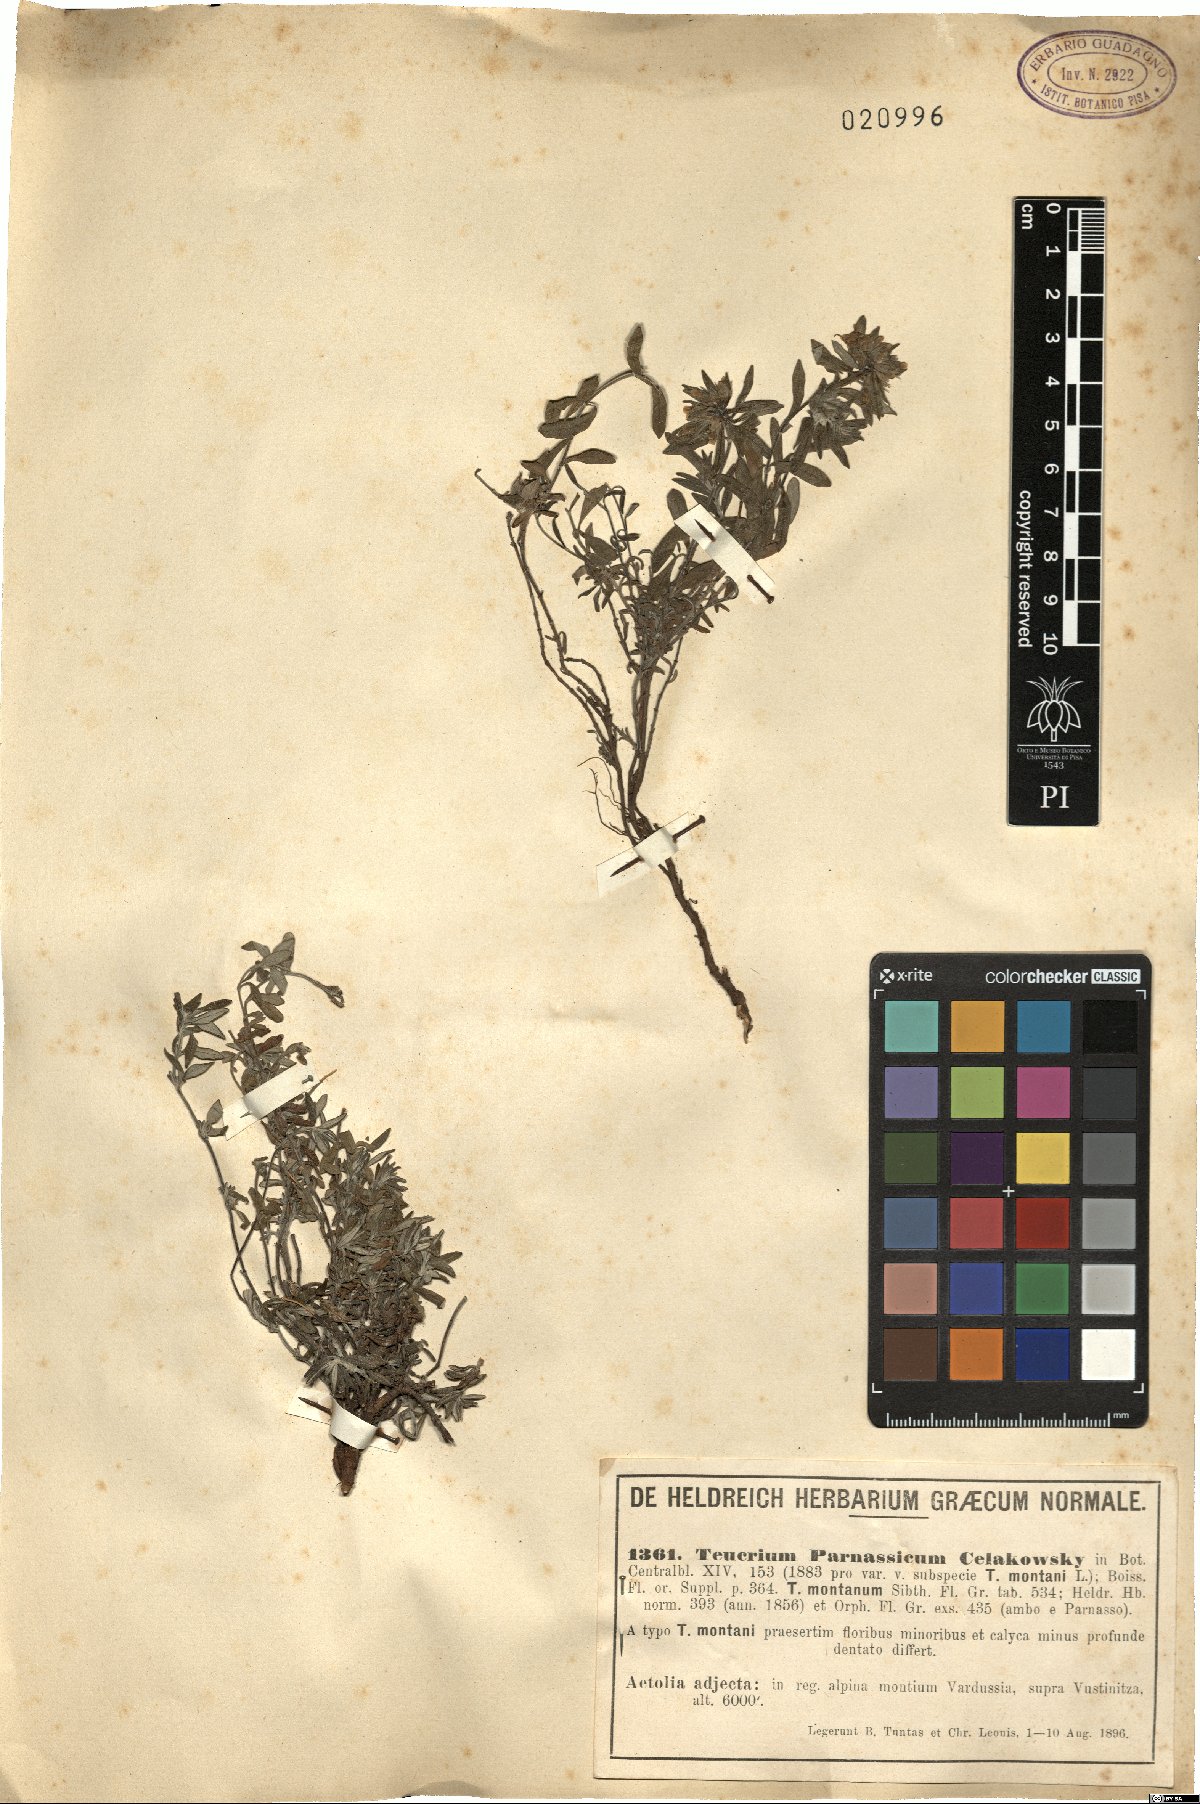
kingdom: Plantae
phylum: Tracheophyta
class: Magnoliopsida
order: Lamiales
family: Lamiaceae
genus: Teucrium
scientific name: Teucrium montanum
